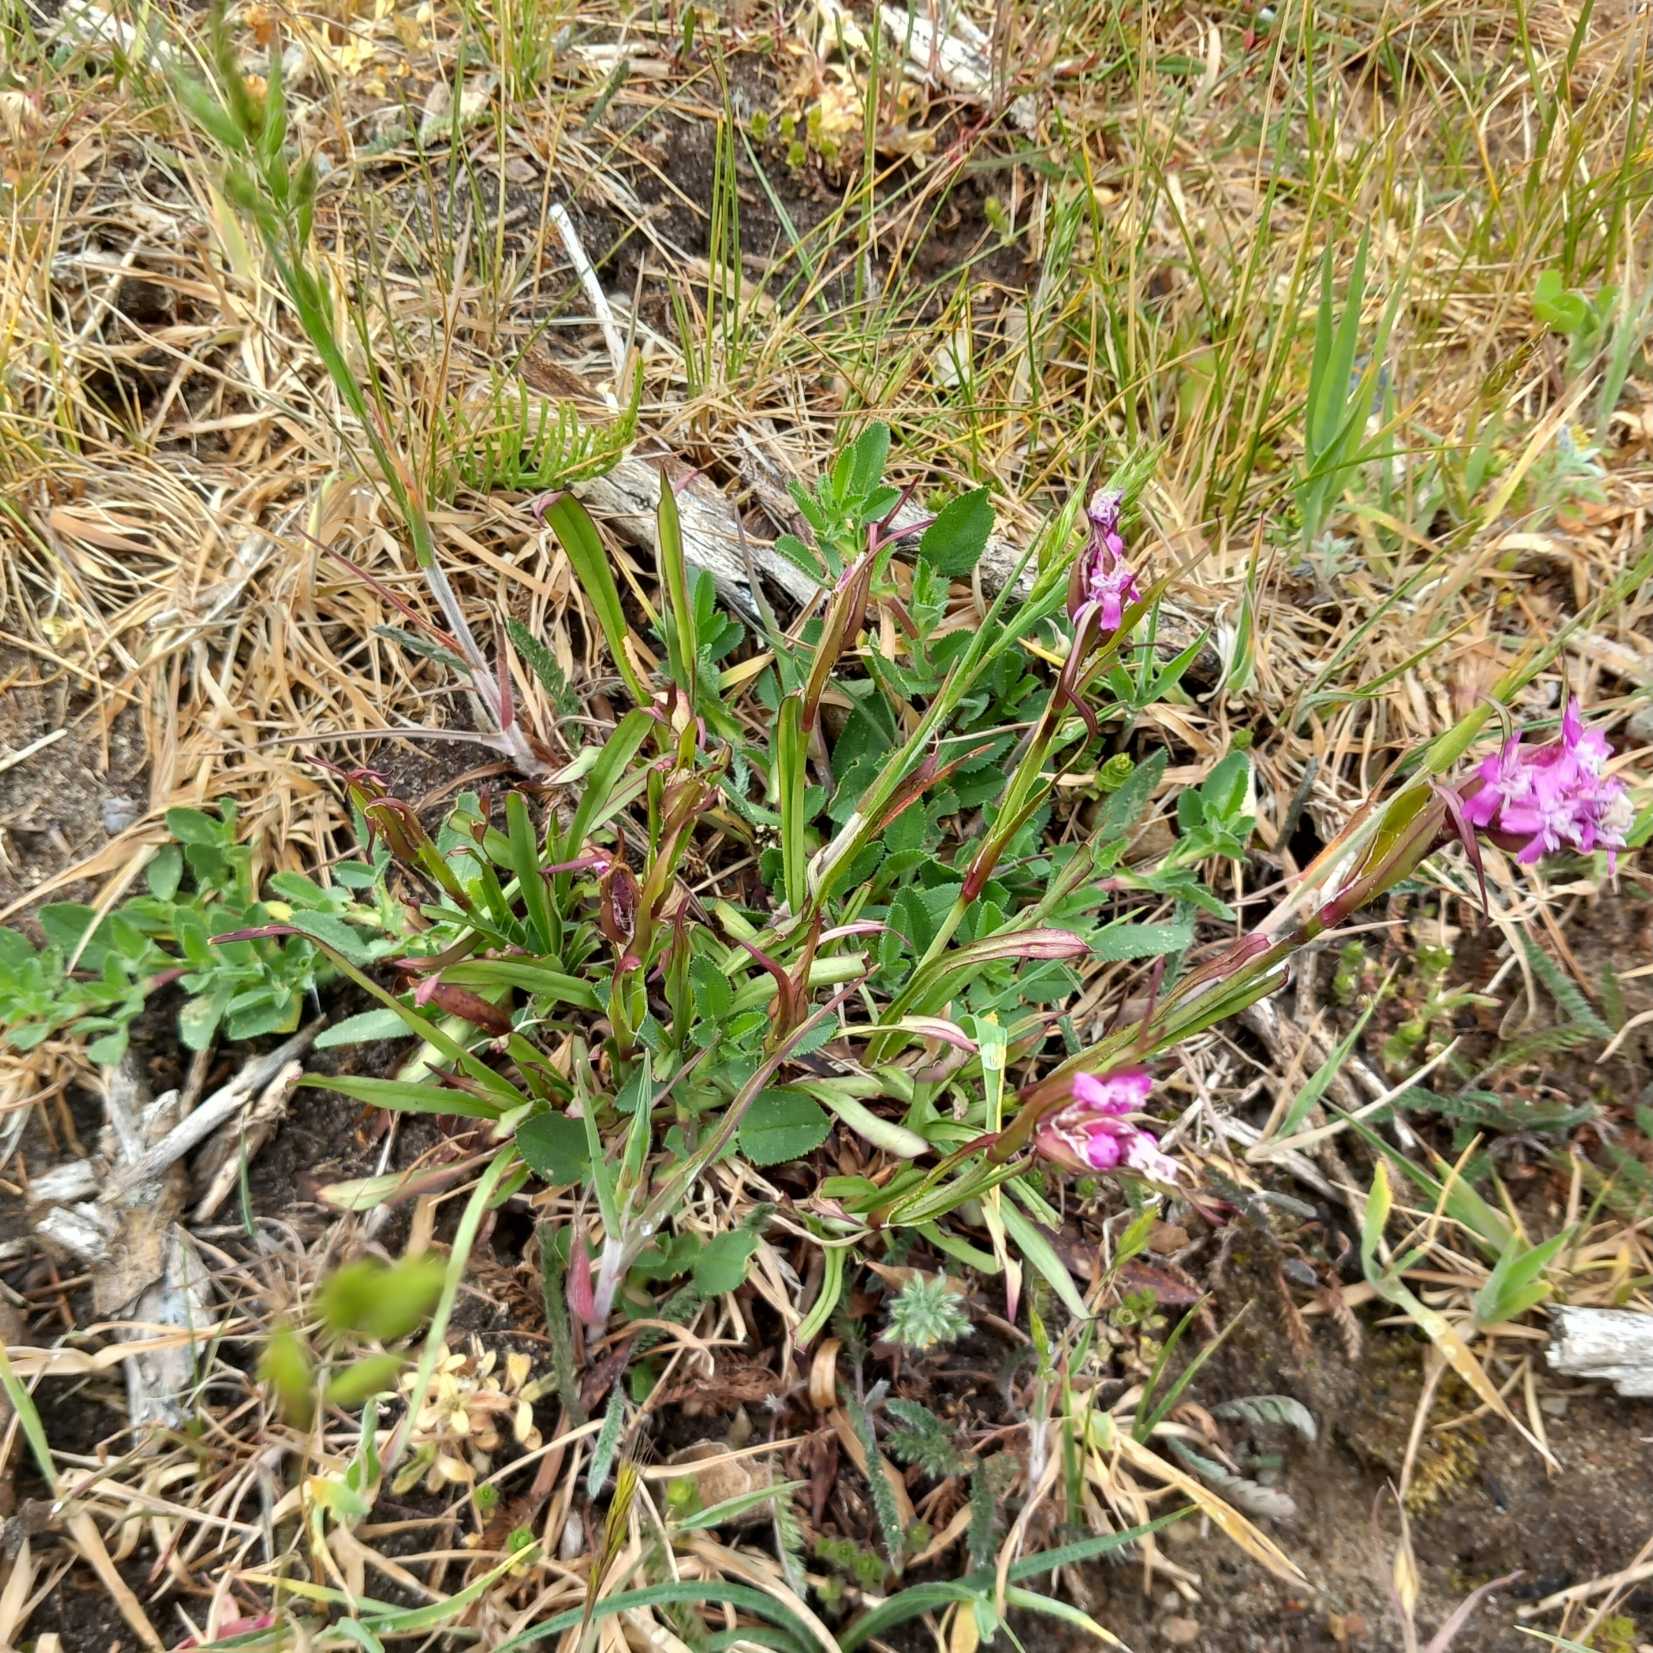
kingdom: Plantae
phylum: Tracheophyta
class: Magnoliopsida
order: Caryophyllales
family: Caryophyllaceae
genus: Viscaria
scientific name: Viscaria vulgaris
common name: Tjærenellike
